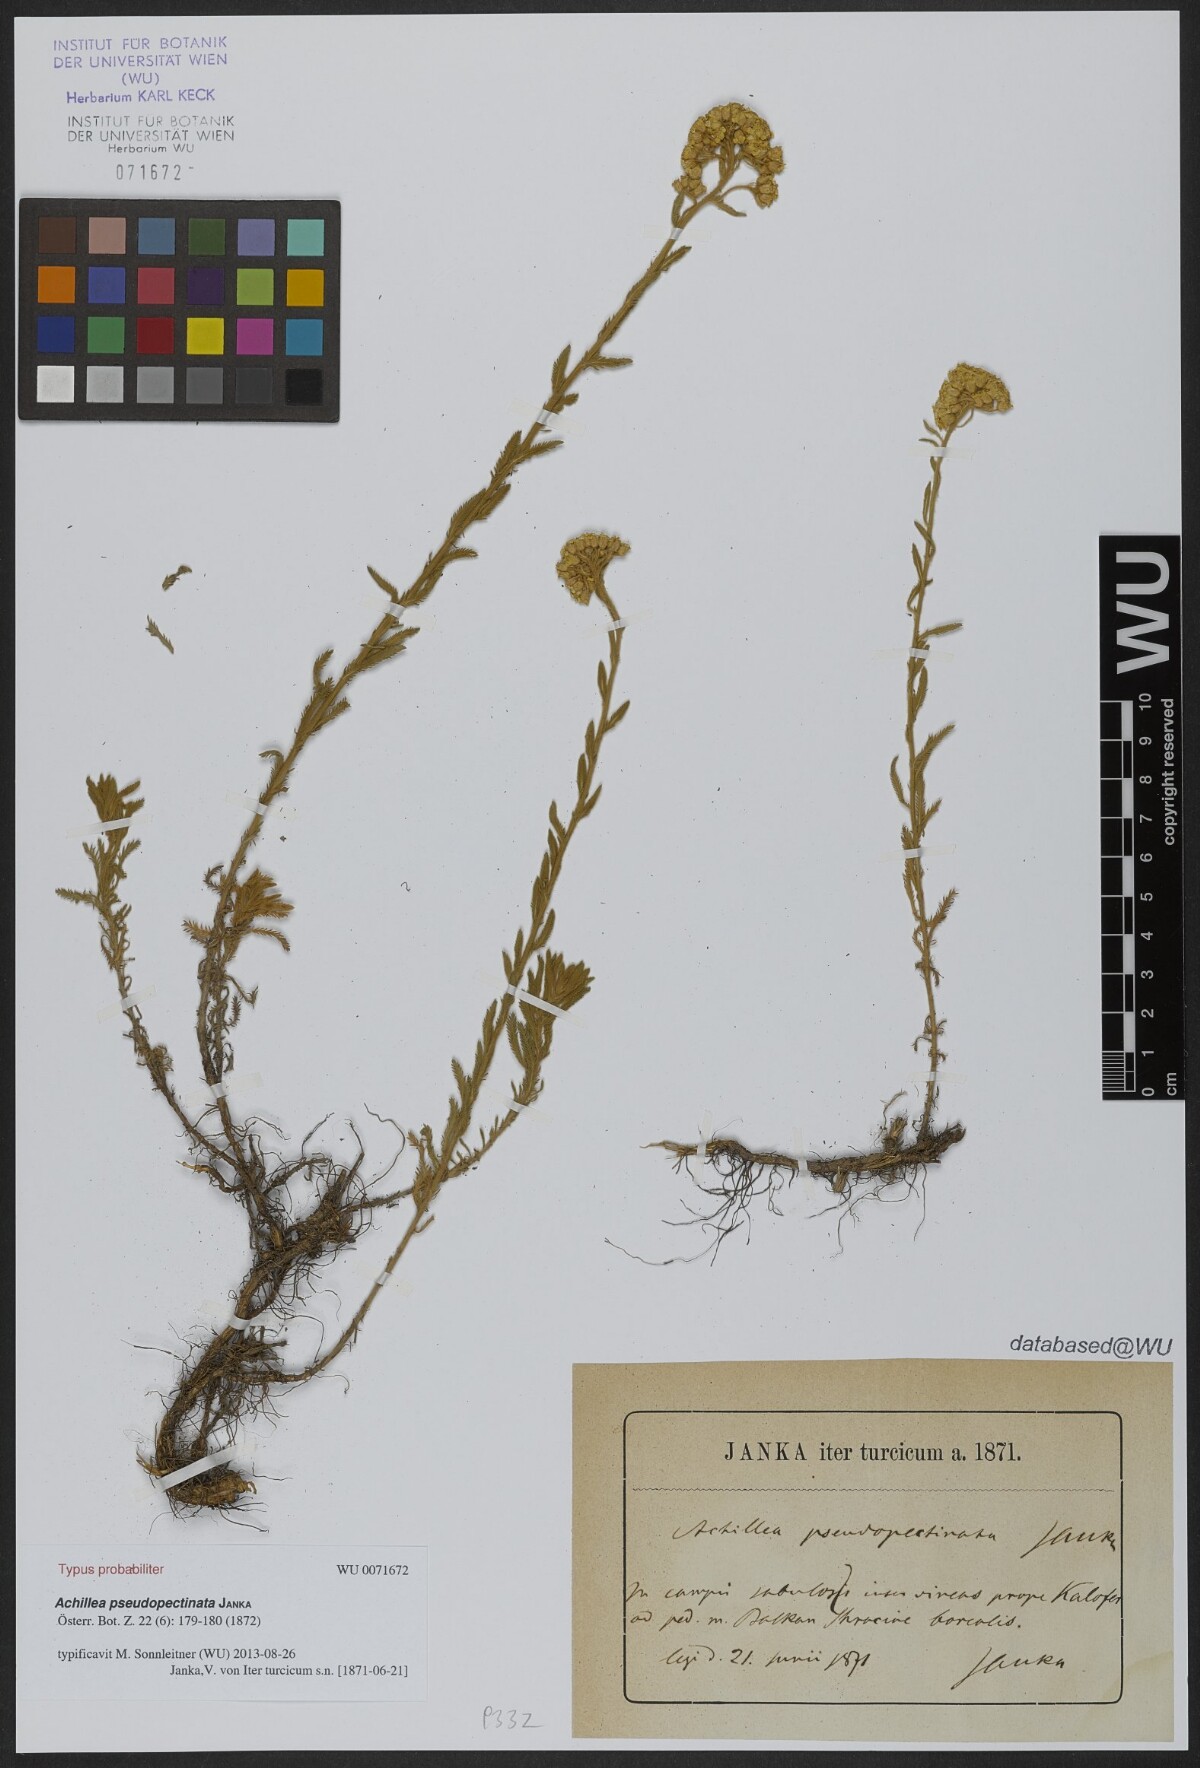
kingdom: Plantae
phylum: Tracheophyta
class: Magnoliopsida
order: Asterales
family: Asteraceae
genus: Achillea
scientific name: Achillea pseudopectinata
